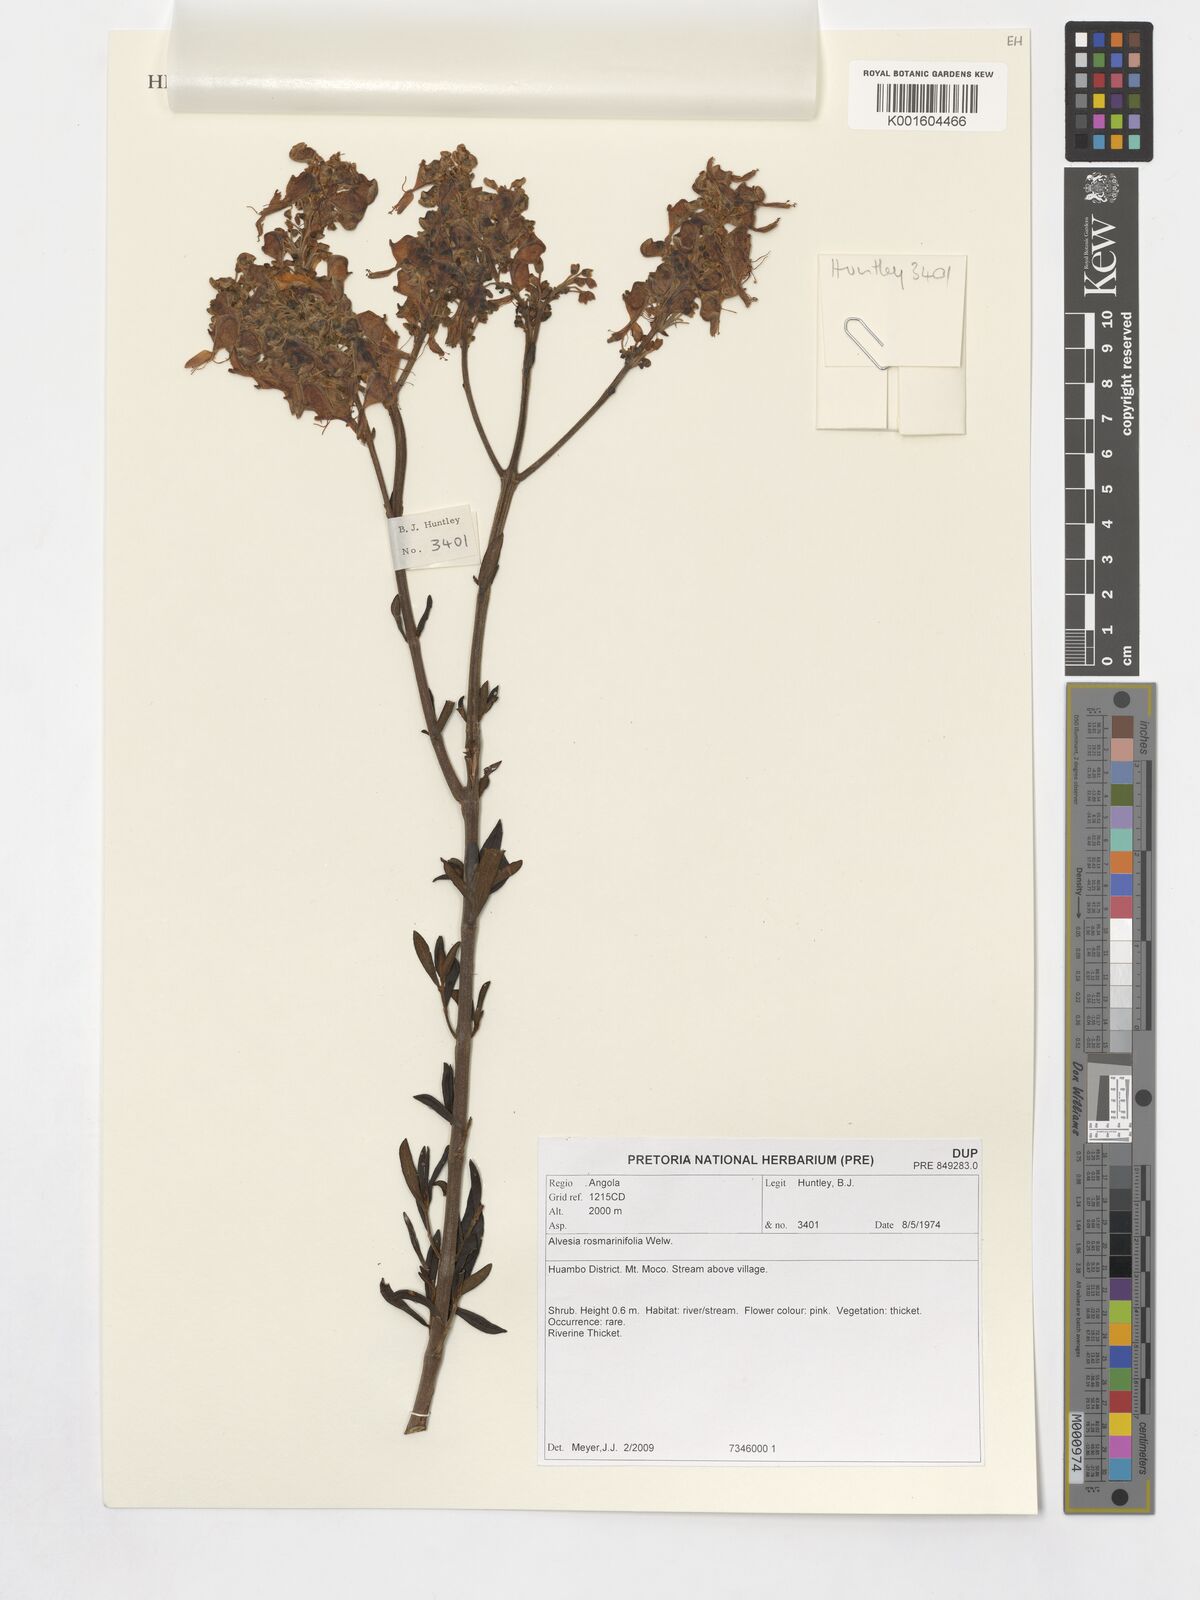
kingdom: Plantae
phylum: Tracheophyta
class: Magnoliopsida
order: Lamiales
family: Lamiaceae
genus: Alvesia
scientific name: Alvesia rosmarinifolia
